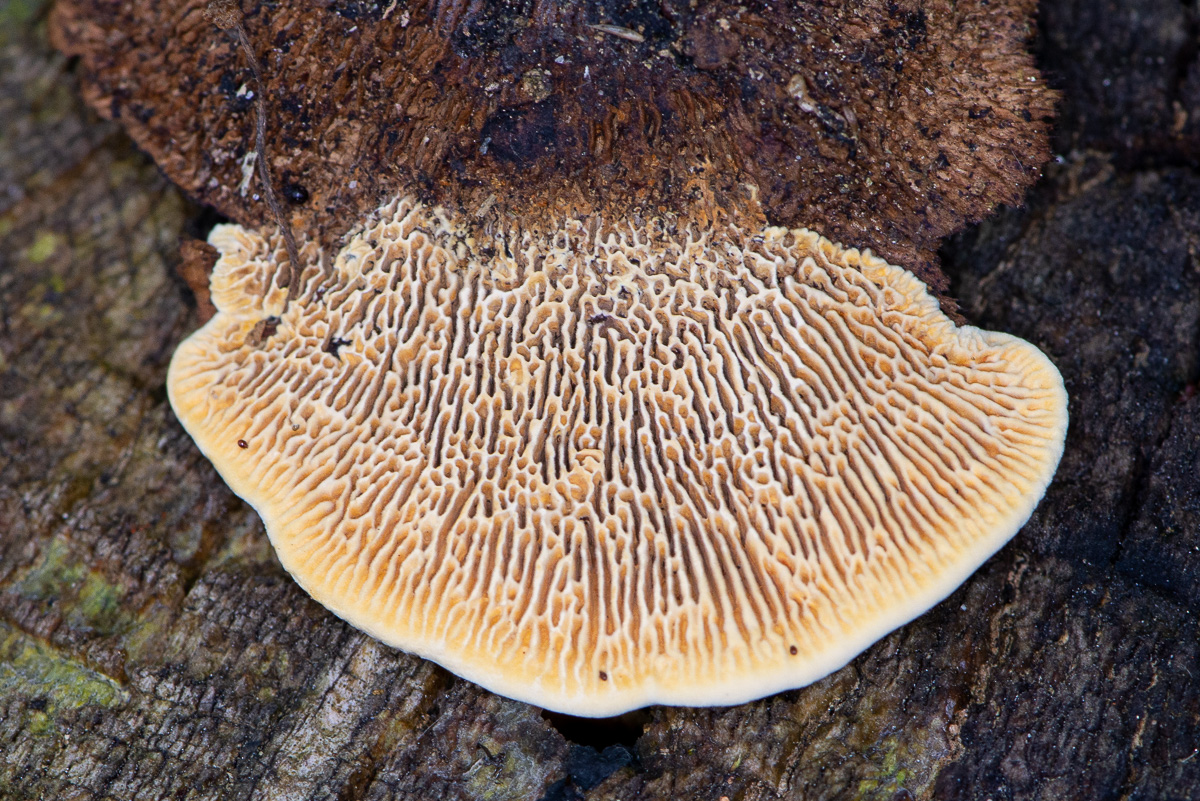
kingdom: Fungi
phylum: Basidiomycota
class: Agaricomycetes
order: Gloeophyllales
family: Gloeophyllaceae
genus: Gloeophyllum
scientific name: Gloeophyllum sepiarium
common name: fyrre-korkhat
